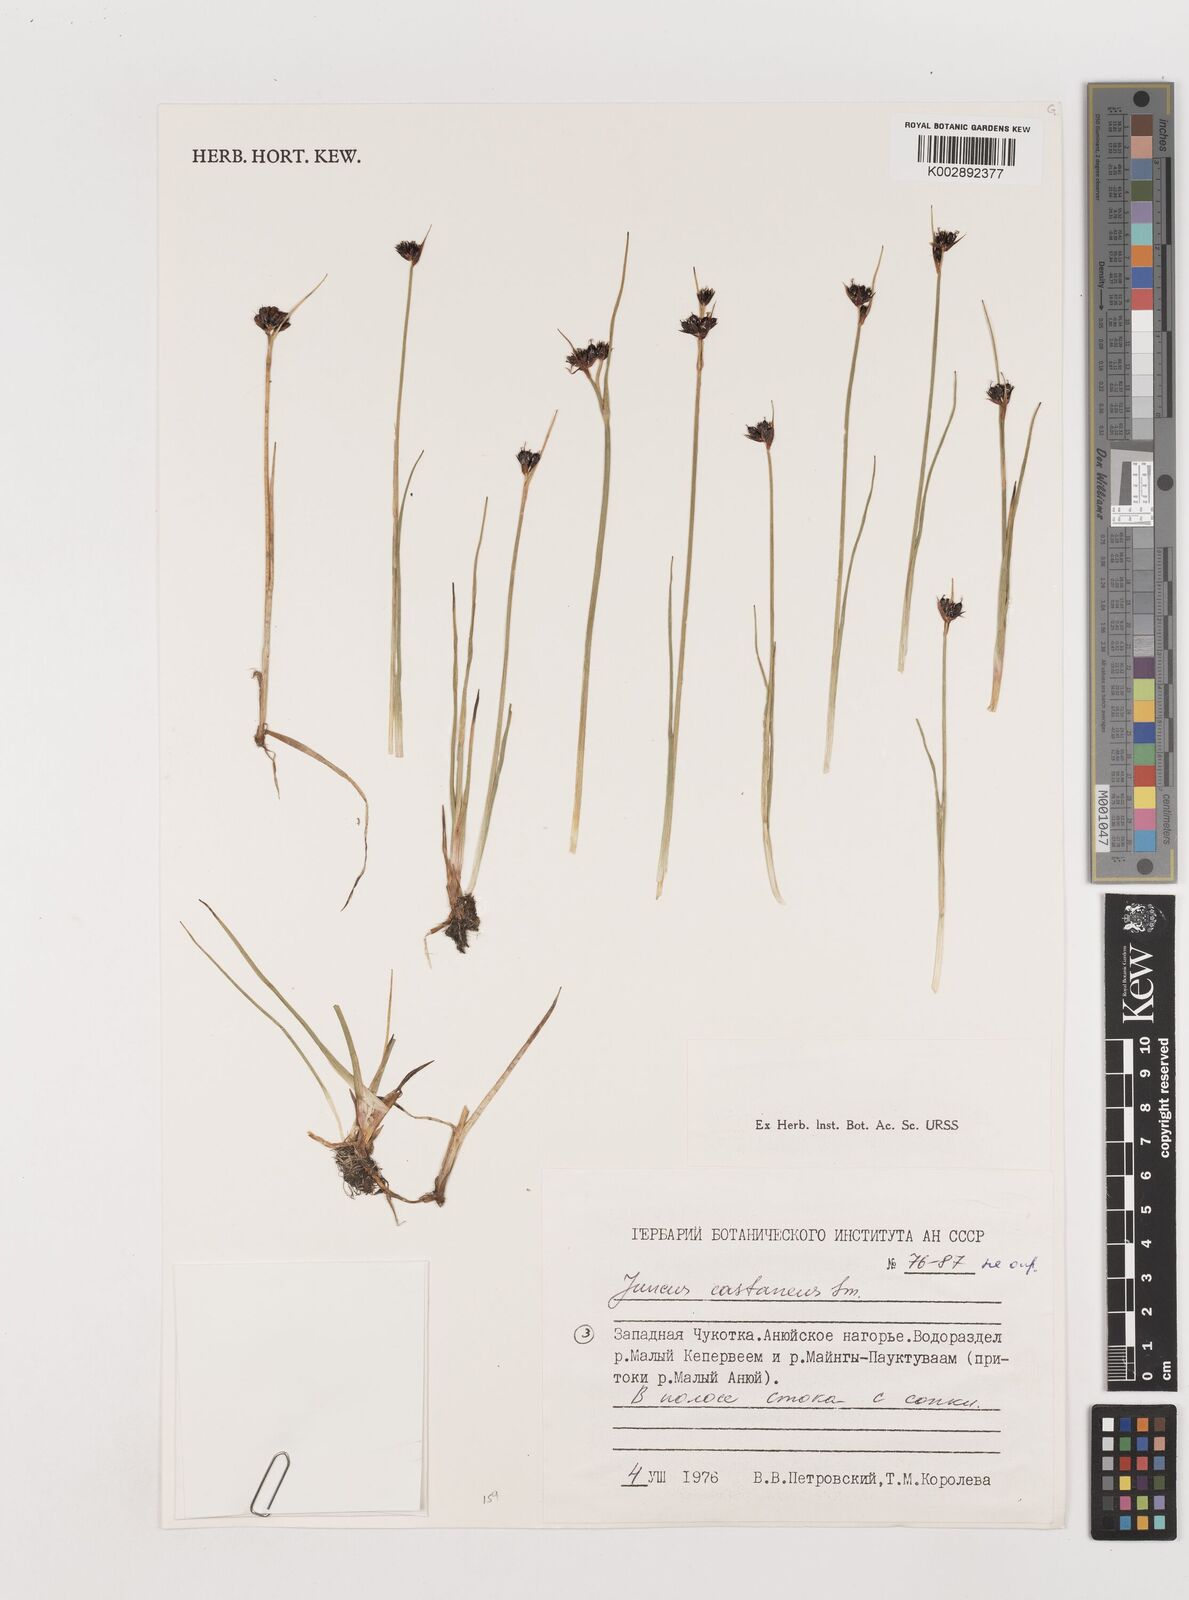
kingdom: Plantae
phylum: Tracheophyta
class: Liliopsida
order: Poales
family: Juncaceae
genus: Juncus
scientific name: Juncus castaneus
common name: Chestnut rush
